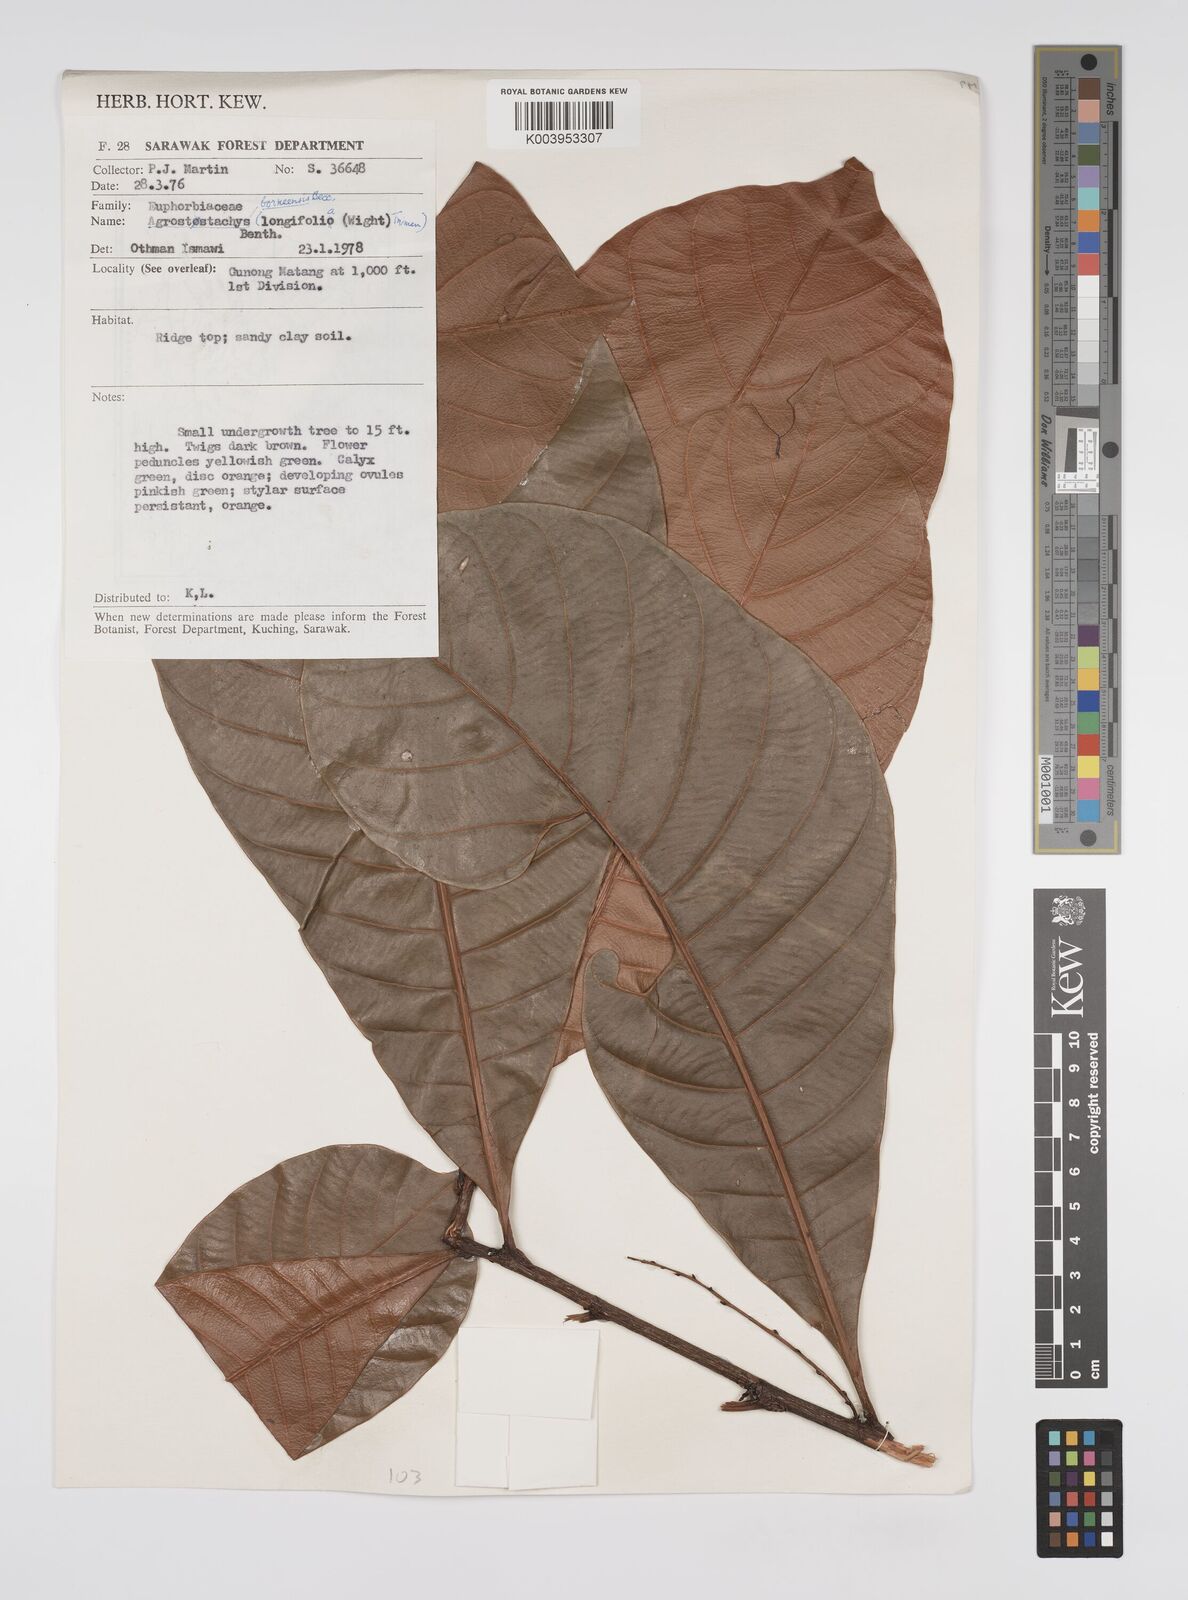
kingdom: Plantae
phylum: Tracheophyta
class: Magnoliopsida
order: Malpighiales
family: Euphorbiaceae
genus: Agrostistachys
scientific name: Agrostistachys borneensis
